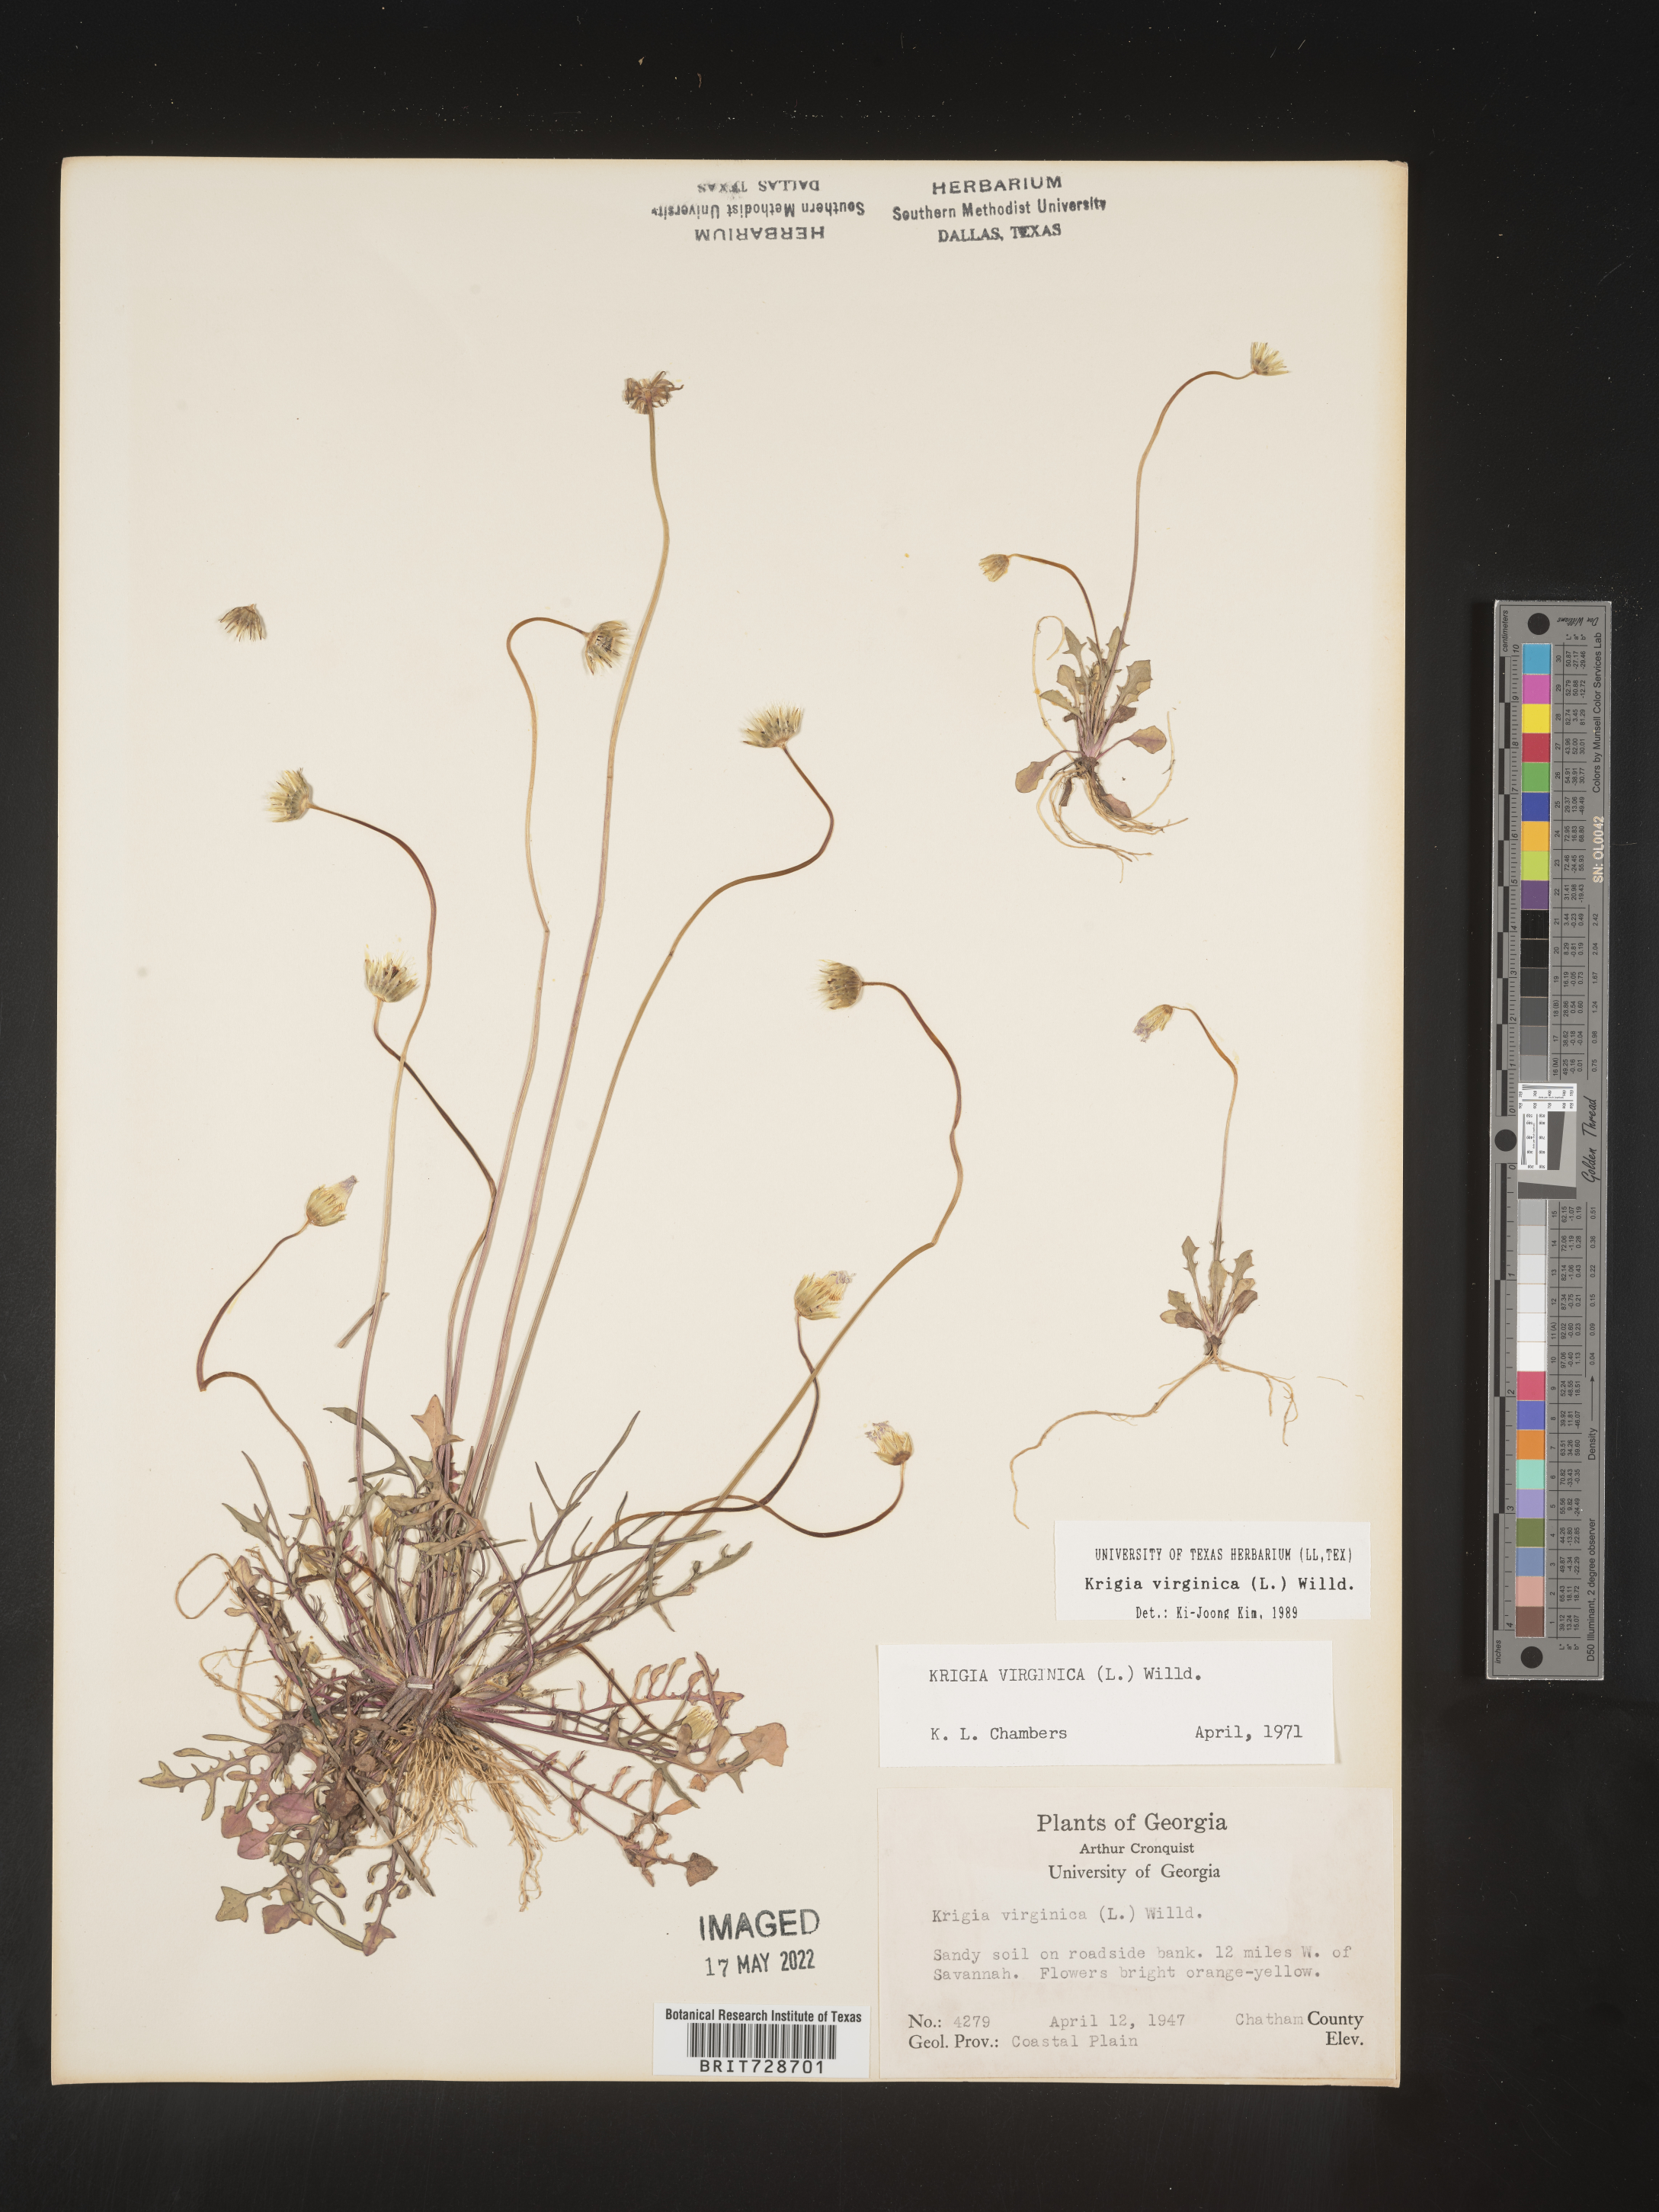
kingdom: Plantae
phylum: Tracheophyta
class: Magnoliopsida
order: Asterales
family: Asteraceae
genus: Krigia
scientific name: Krigia virginica
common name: Virginia dwarf-dandelion
